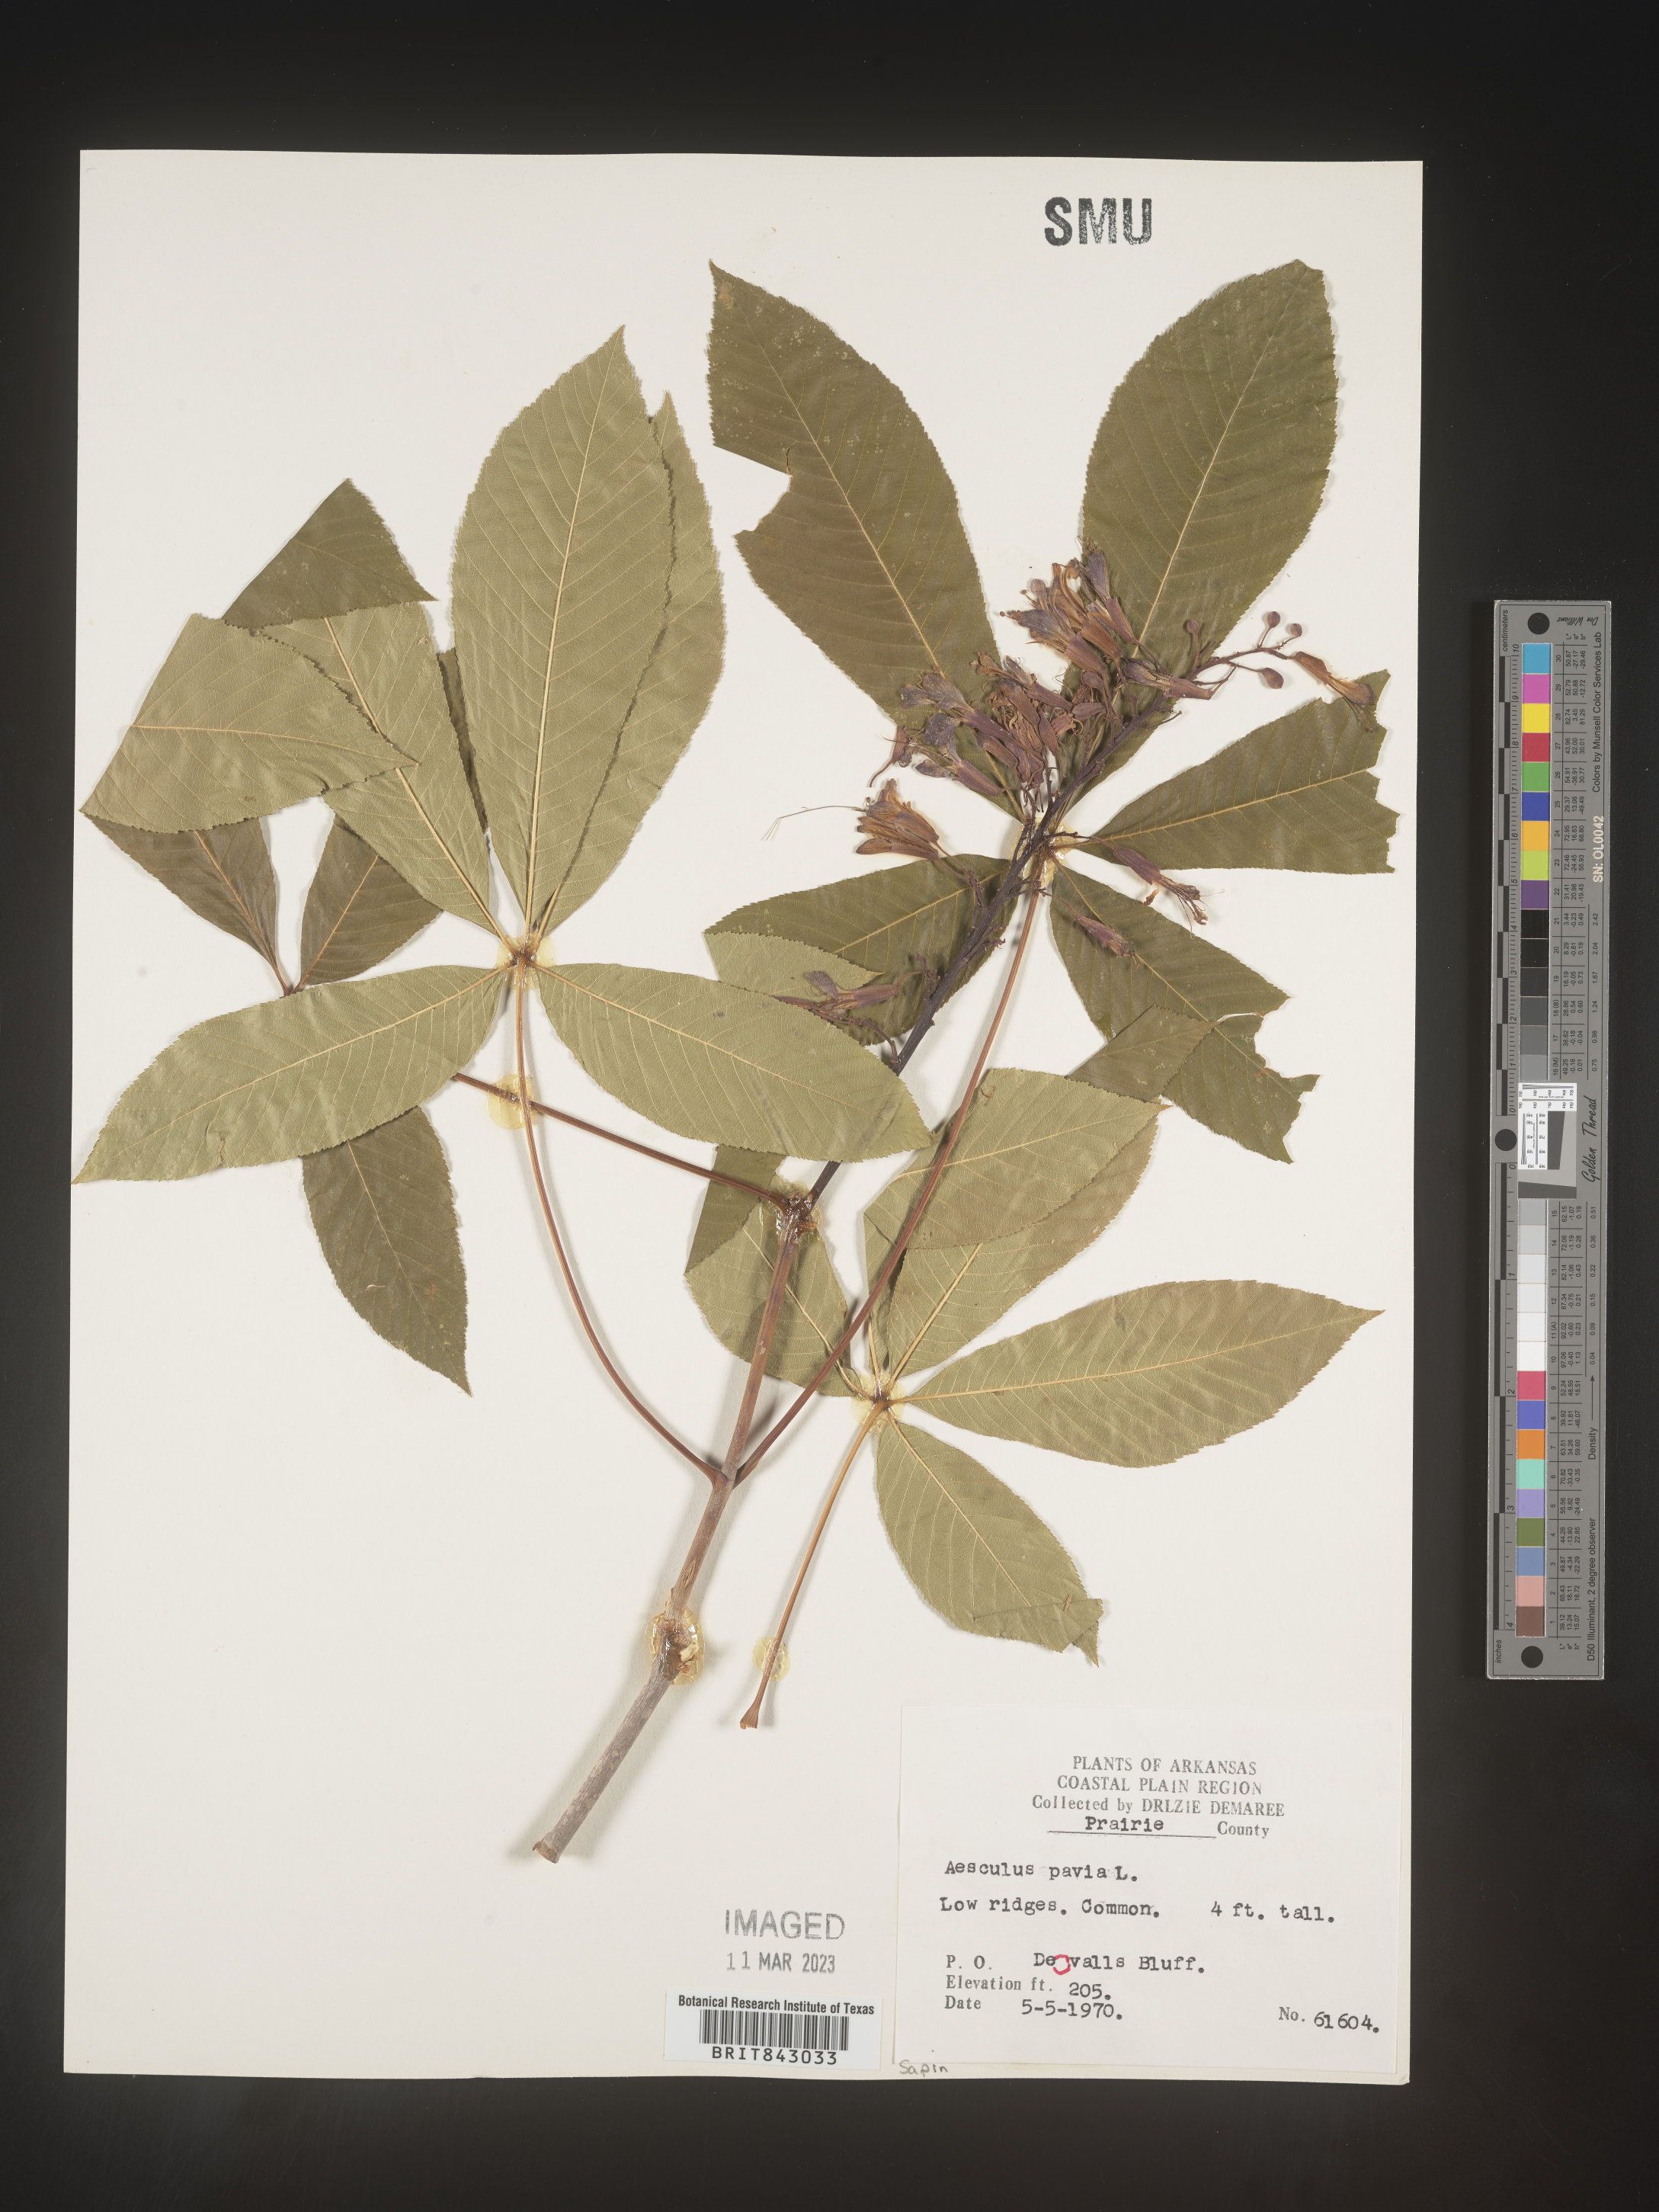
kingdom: Plantae
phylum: Tracheophyta
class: Magnoliopsida
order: Sapindales
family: Sapindaceae
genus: Aesculus
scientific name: Aesculus pavia
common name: Red buckeye
